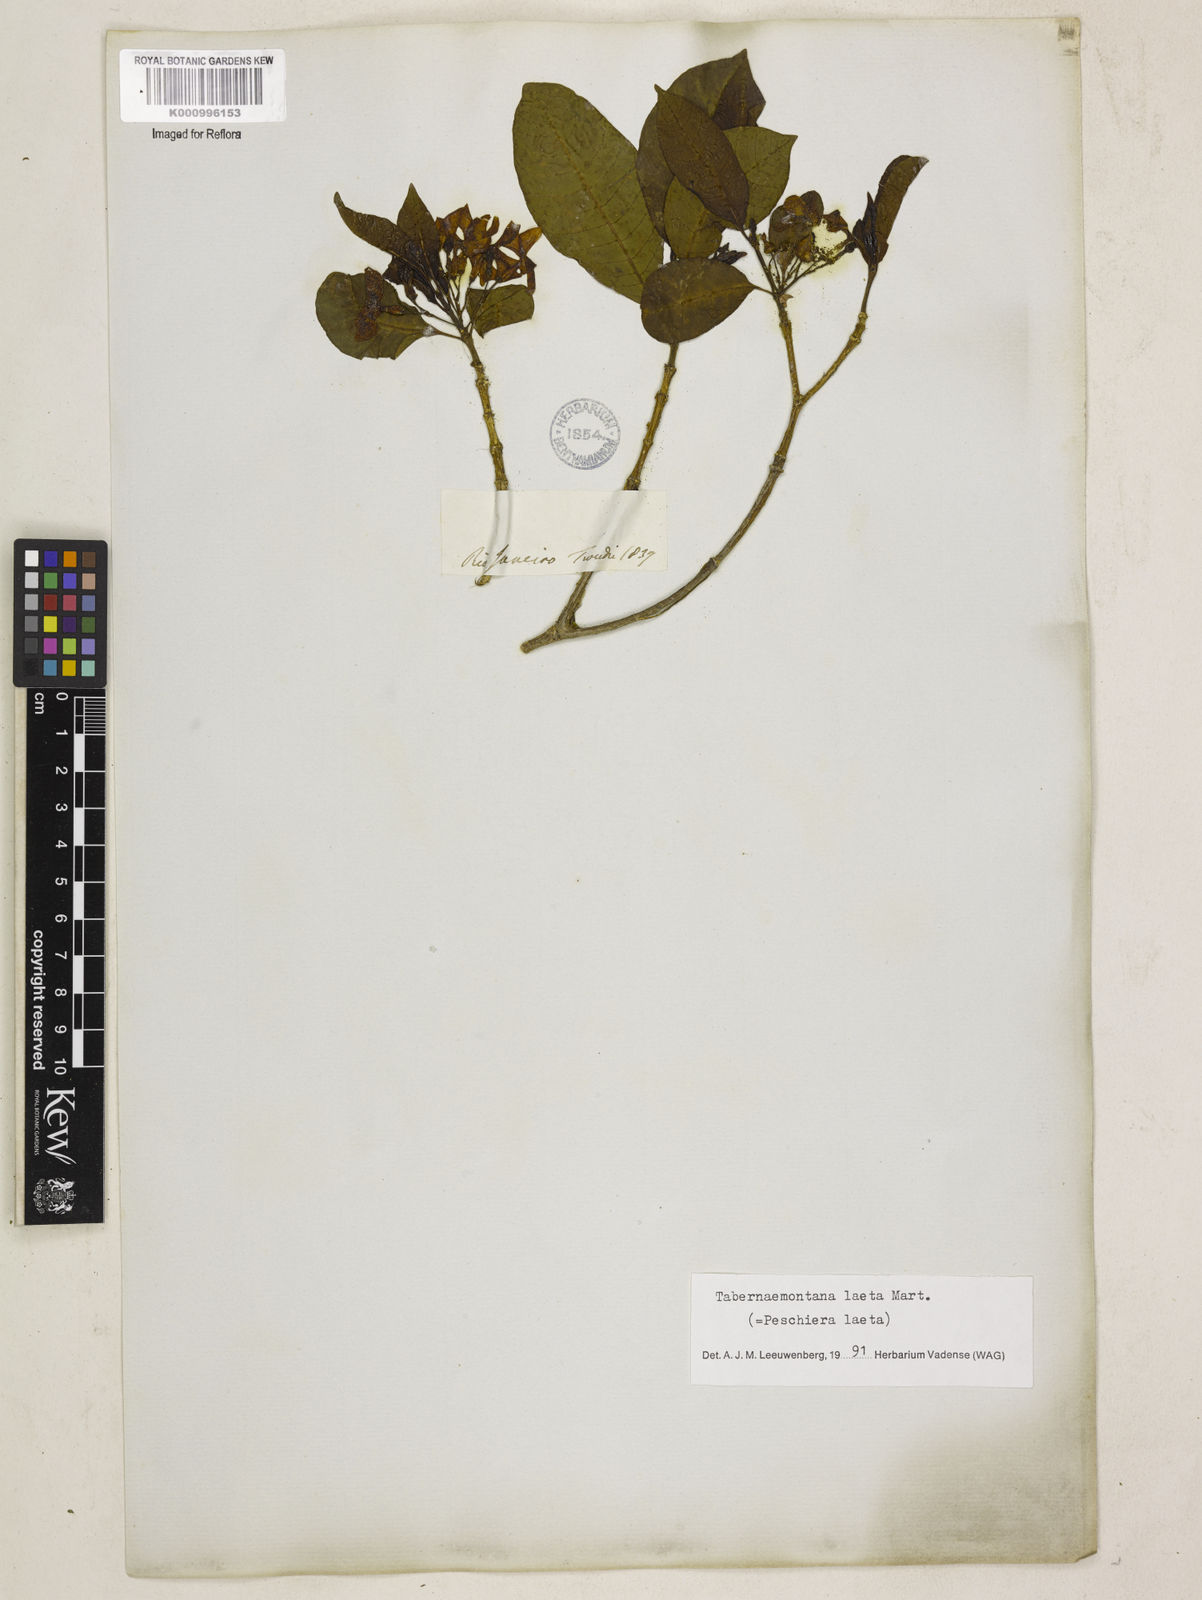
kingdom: Plantae
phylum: Tracheophyta
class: Magnoliopsida
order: Gentianales
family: Apocynaceae
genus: Tabernaemontana
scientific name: Tabernaemontana laeta
